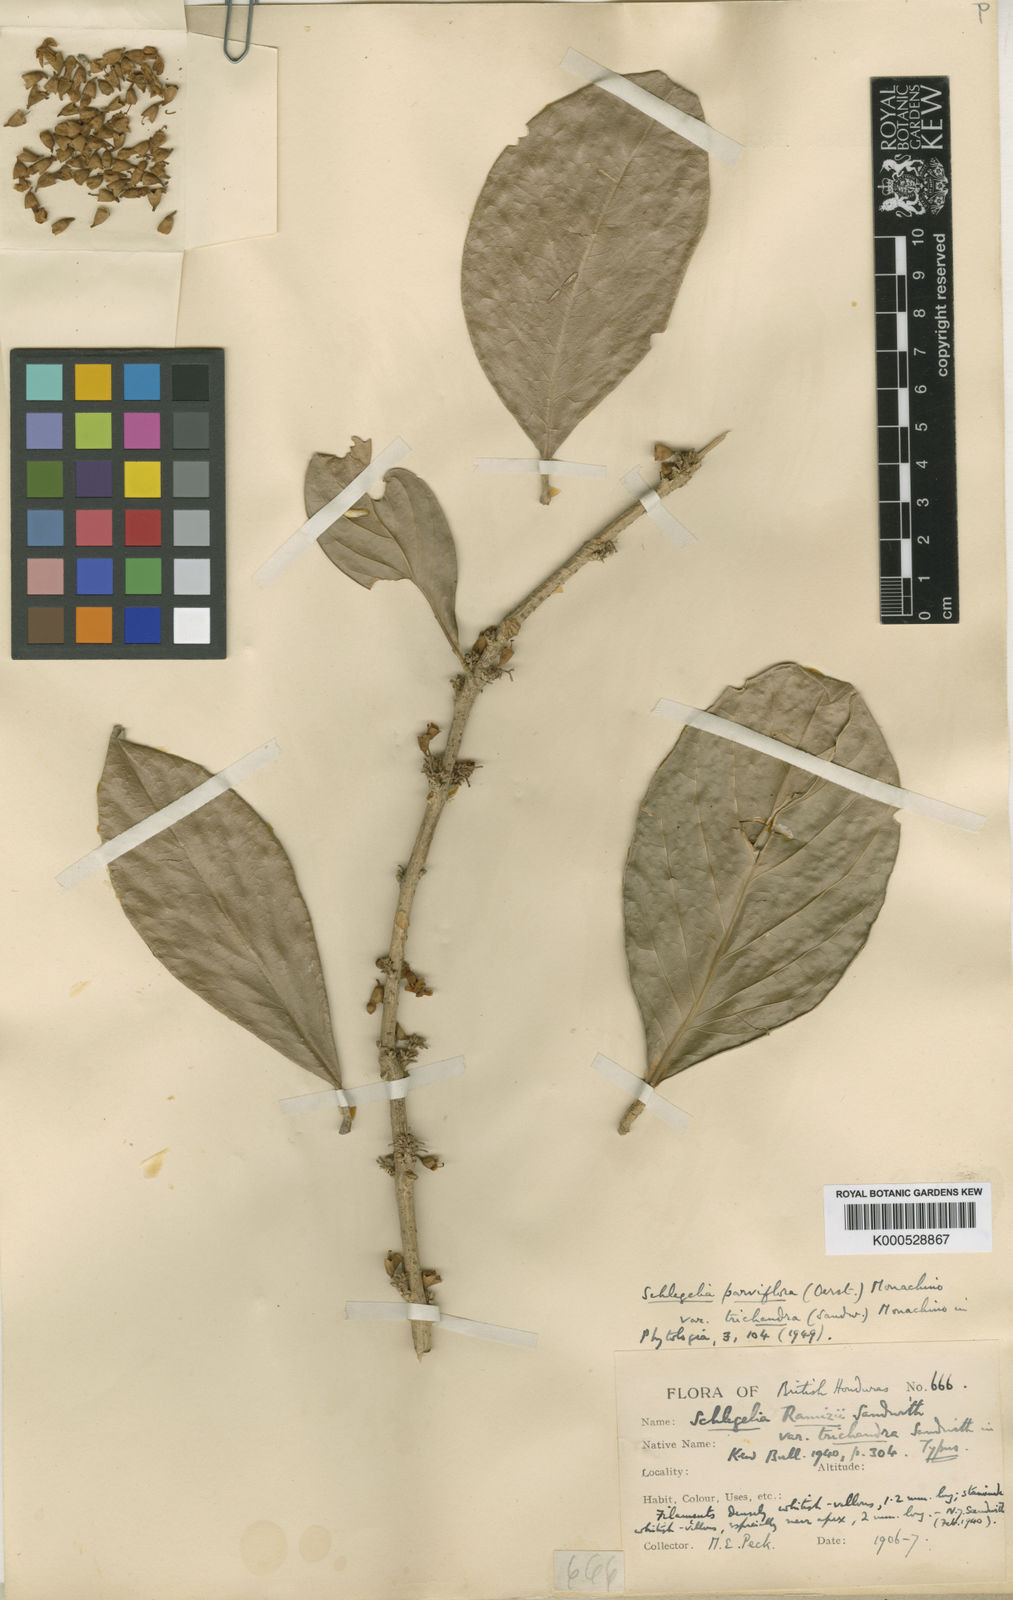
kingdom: Plantae
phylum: Tracheophyta
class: Magnoliopsida
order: Lamiales
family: Schlegeliaceae
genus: Schlegelia
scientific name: Schlegelia parviflora
